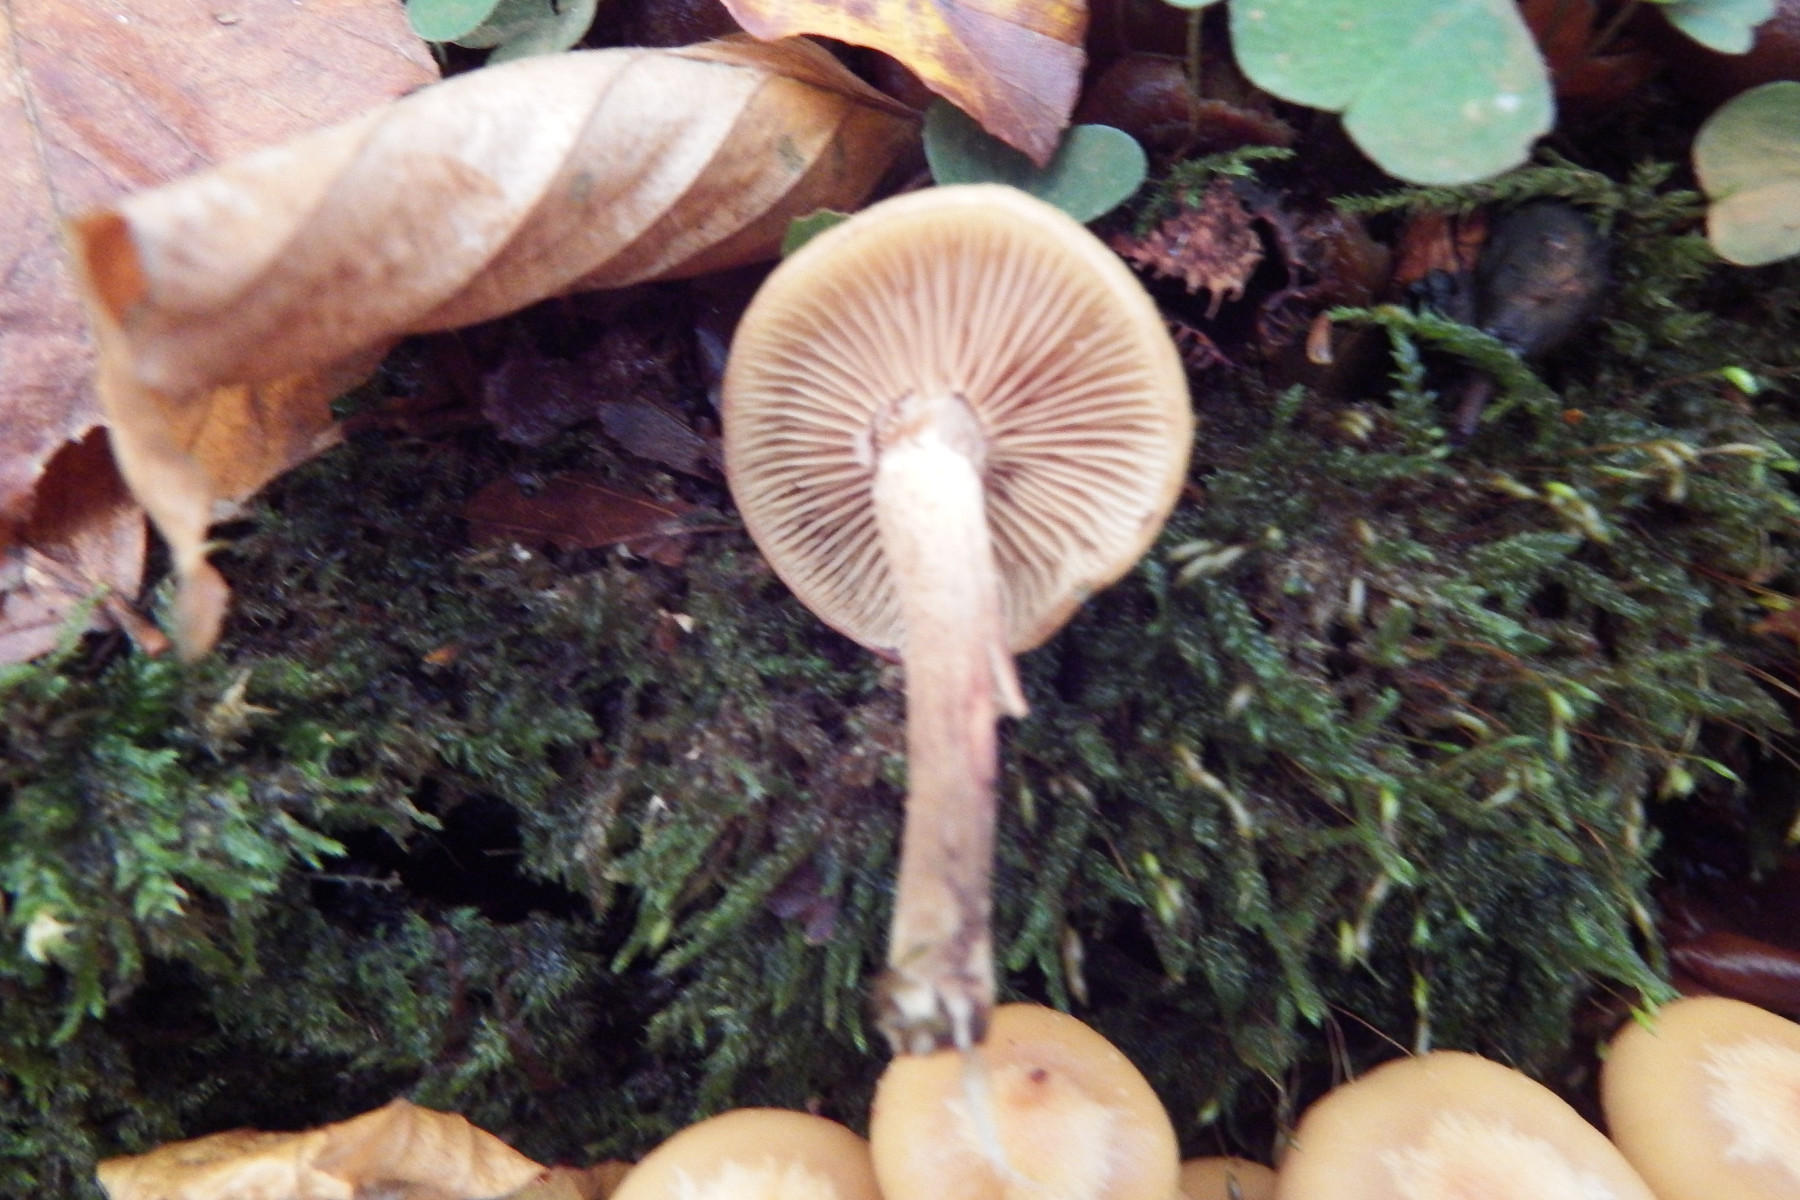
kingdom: Fungi
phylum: Basidiomycota
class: Agaricomycetes
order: Agaricales
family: Strophariaceae
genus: Kuehneromyces
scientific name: Kuehneromyces mutabilis
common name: foranderlig skælhat
